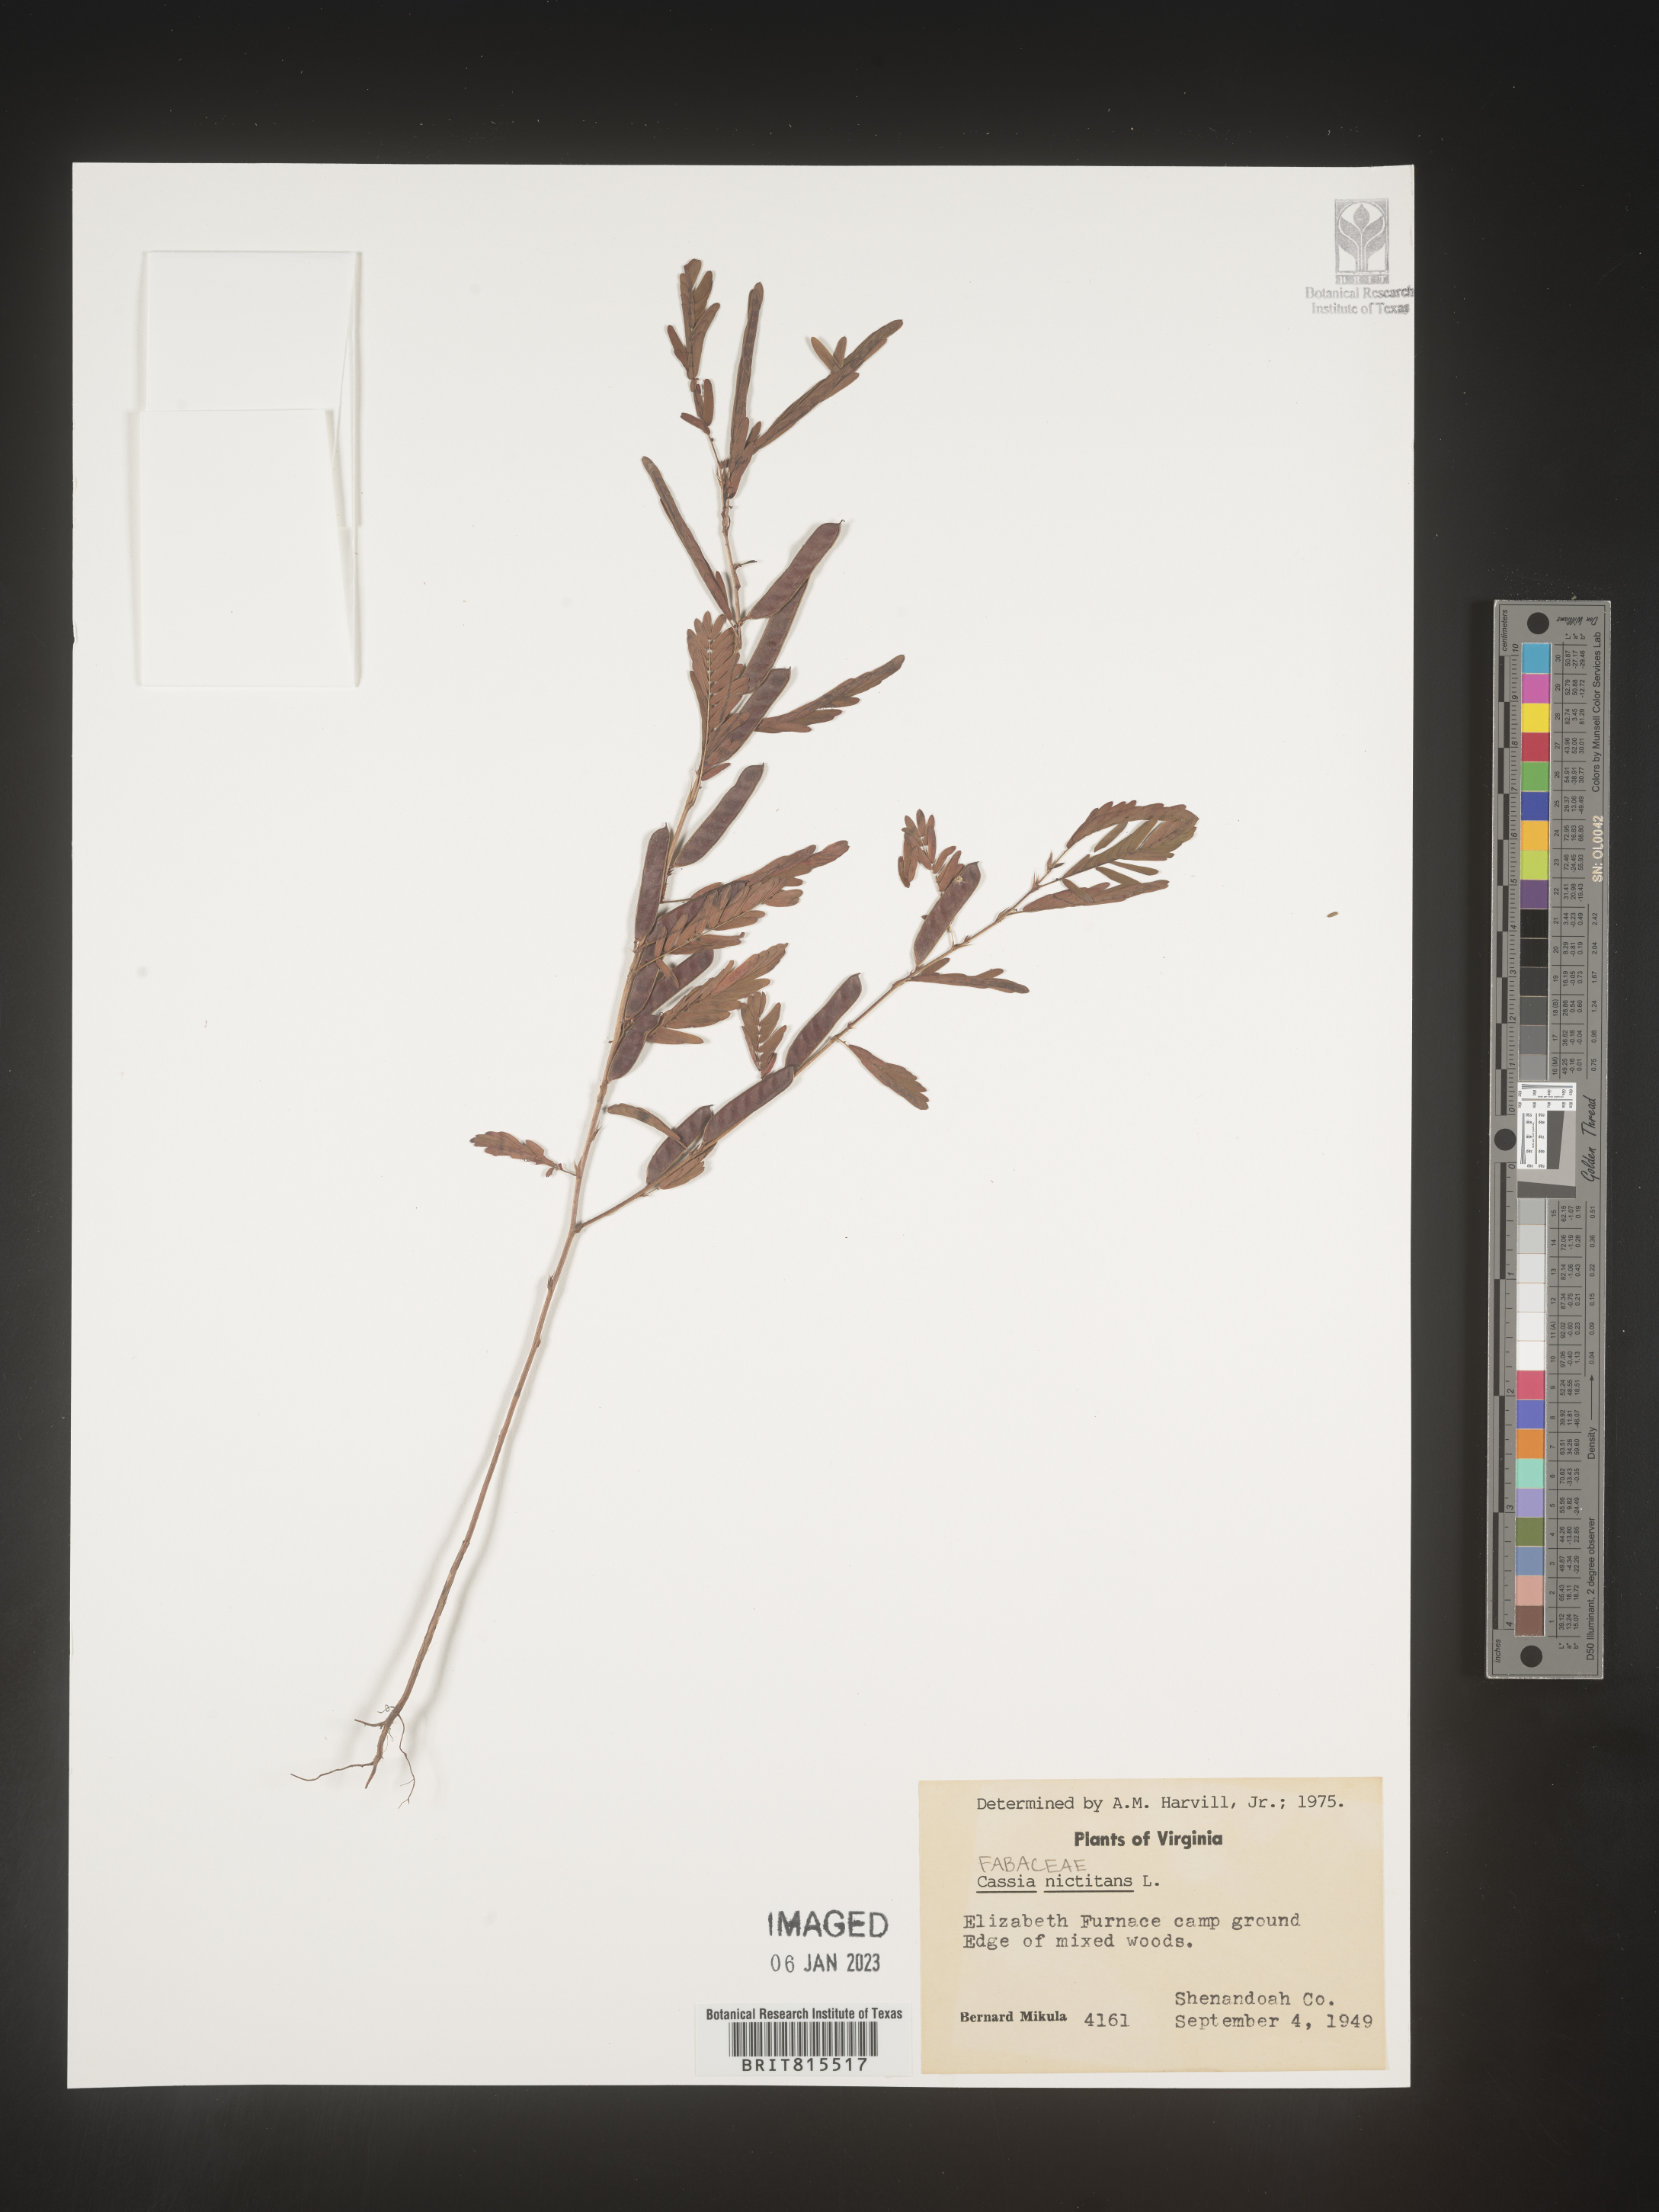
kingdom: Plantae
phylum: Tracheophyta
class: Magnoliopsida
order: Fabales
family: Fabaceae
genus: Chamaecrista
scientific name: Chamaecrista nictitans
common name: Sensitive cassia
